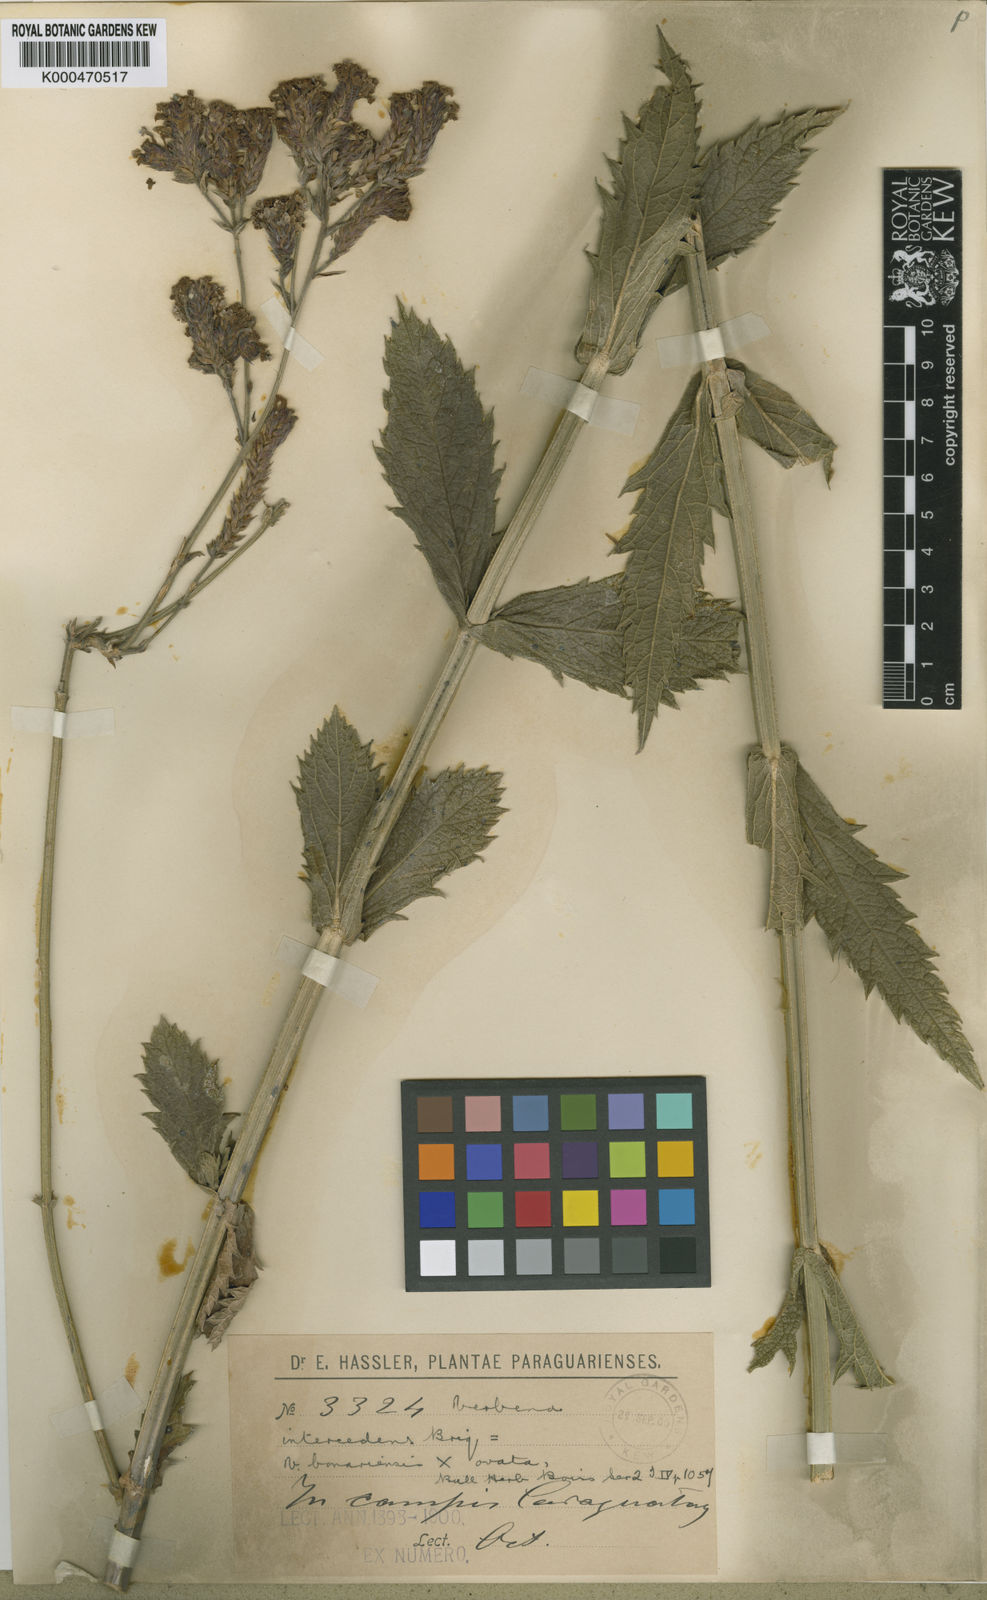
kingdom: Plantae
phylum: Tracheophyta
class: Magnoliopsida
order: Lamiales
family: Verbenaceae
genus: Verbena
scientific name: Verbena bonariensis
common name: Purpletop vervain
